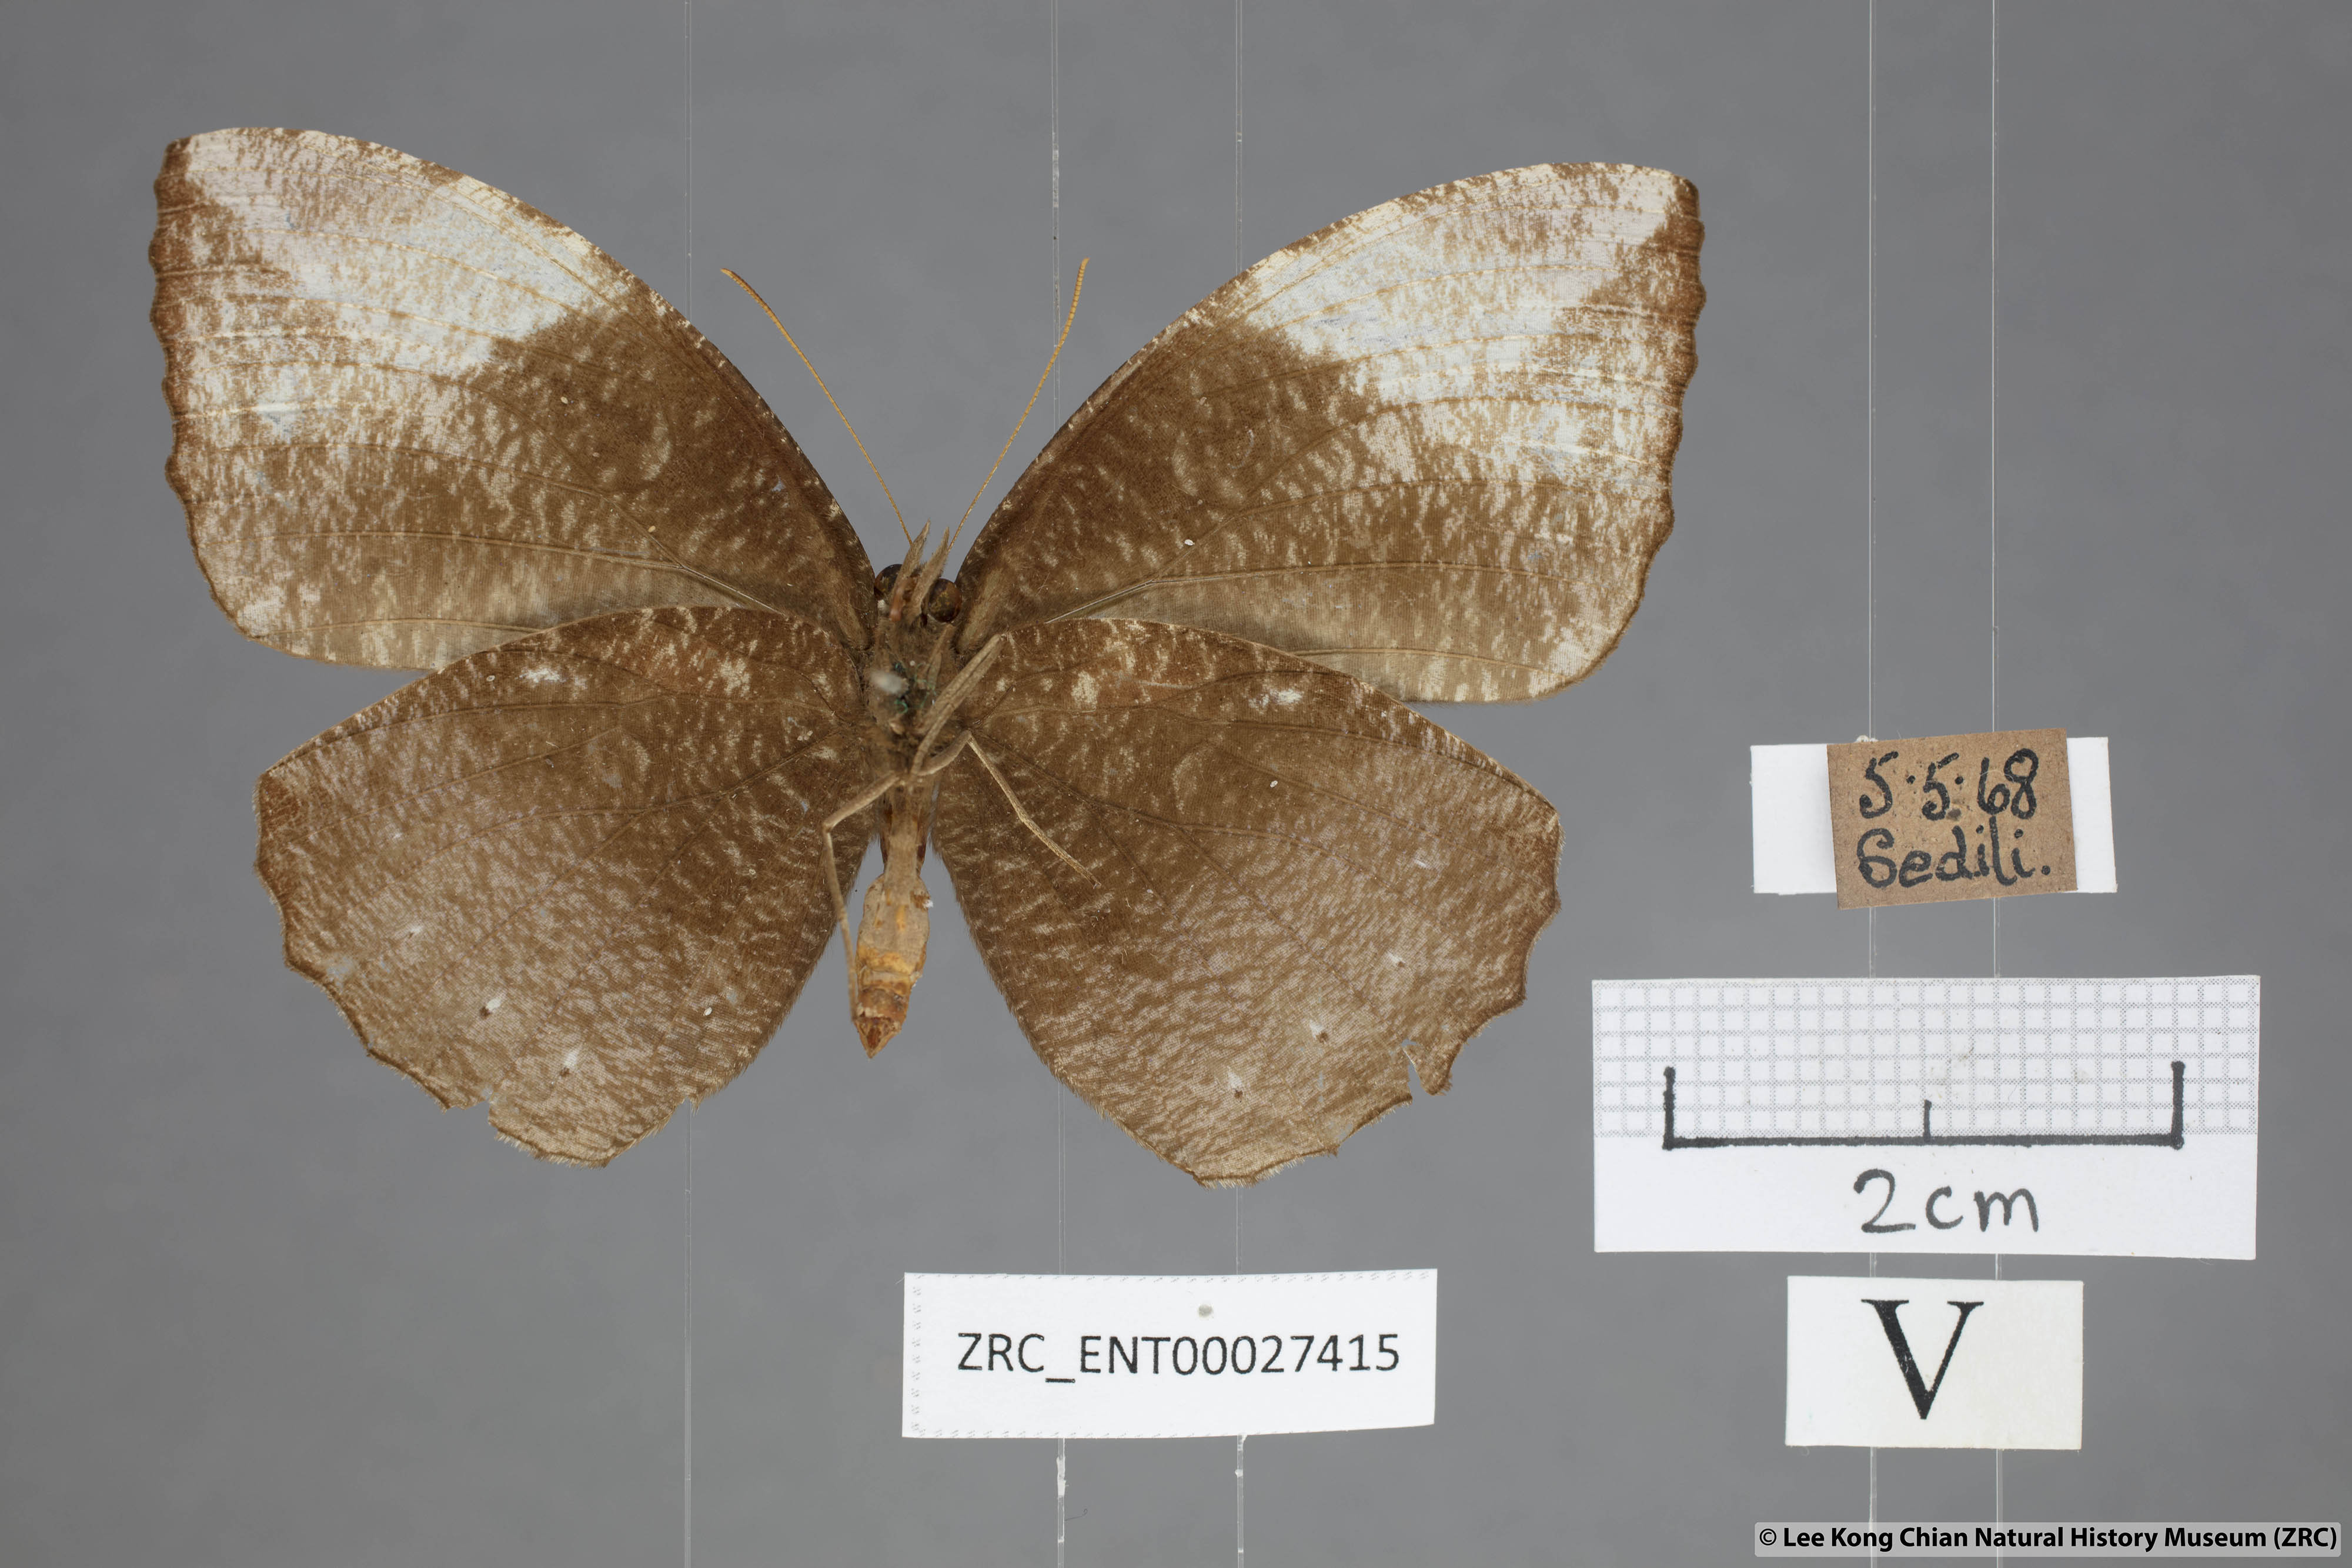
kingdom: Animalia
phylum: Arthropoda
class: Insecta
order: Lepidoptera
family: Nymphalidae
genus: Elymnias
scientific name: Elymnias penanga
